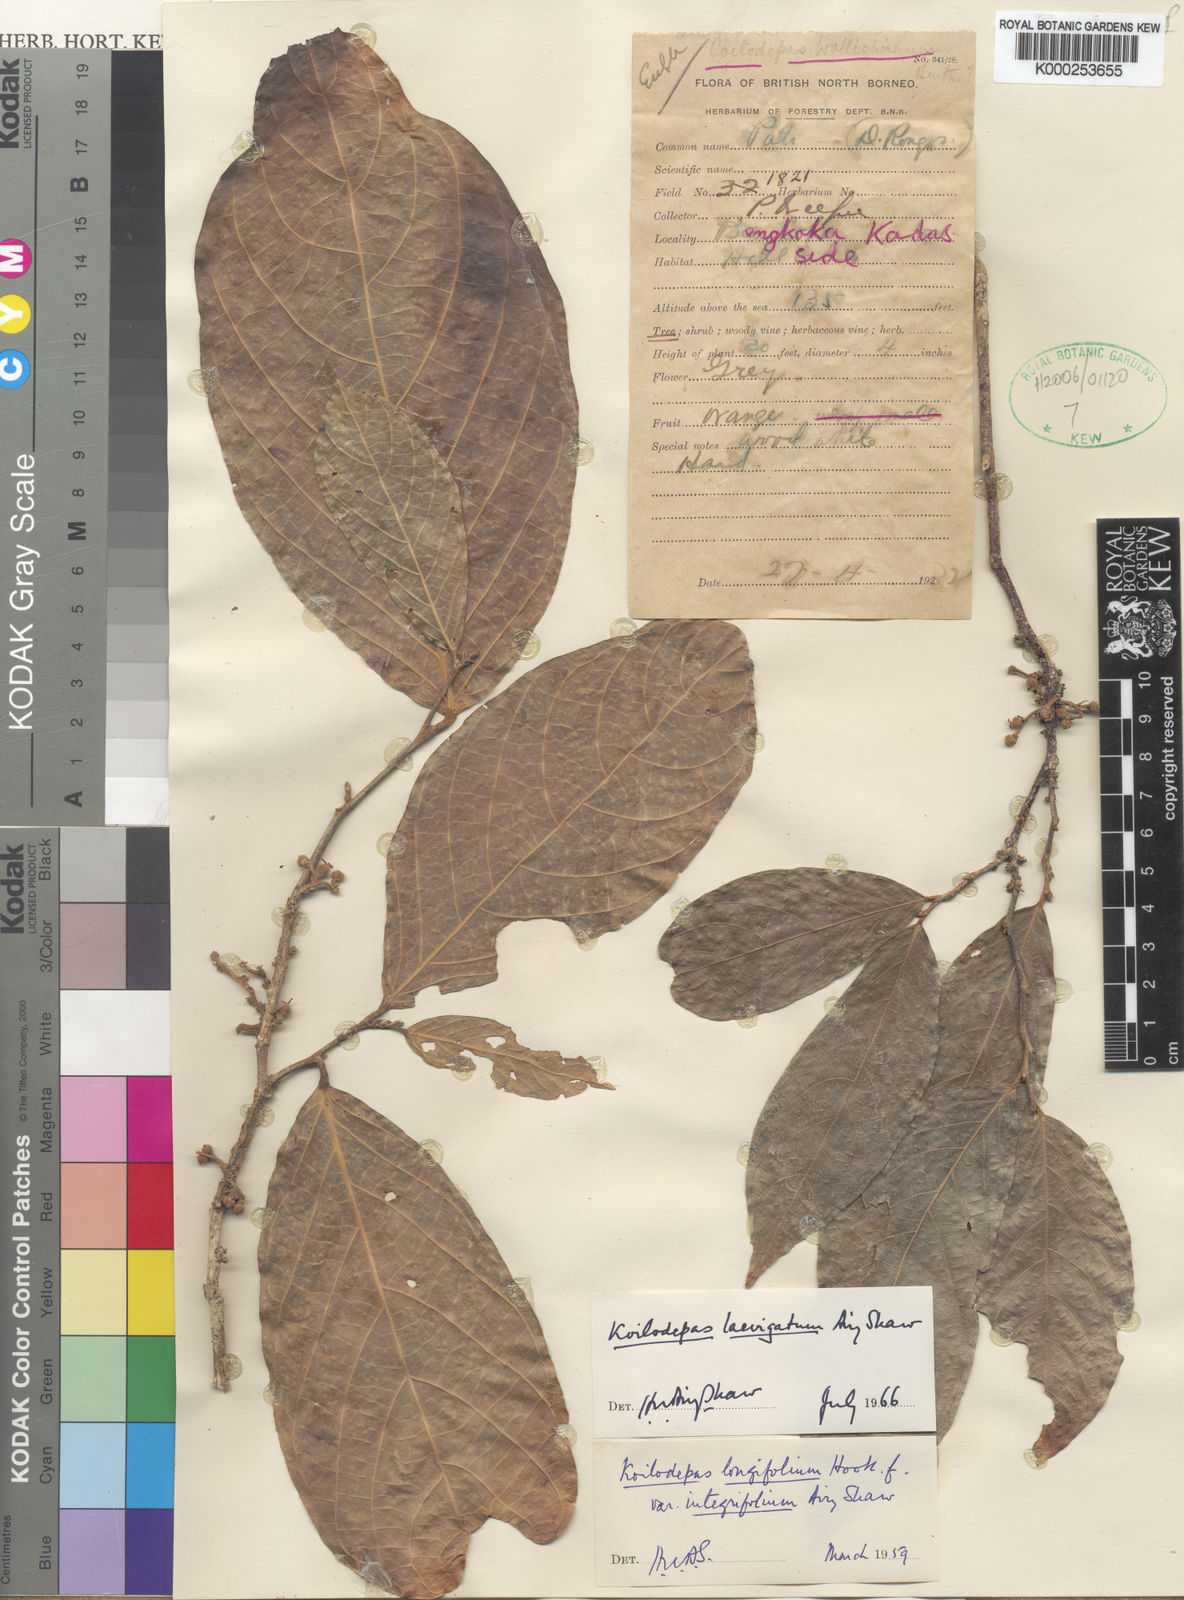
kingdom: Plantae
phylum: Tracheophyta
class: Magnoliopsida
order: Malpighiales
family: Euphorbiaceae
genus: Koilodepas
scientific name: Koilodepas laevigatum
